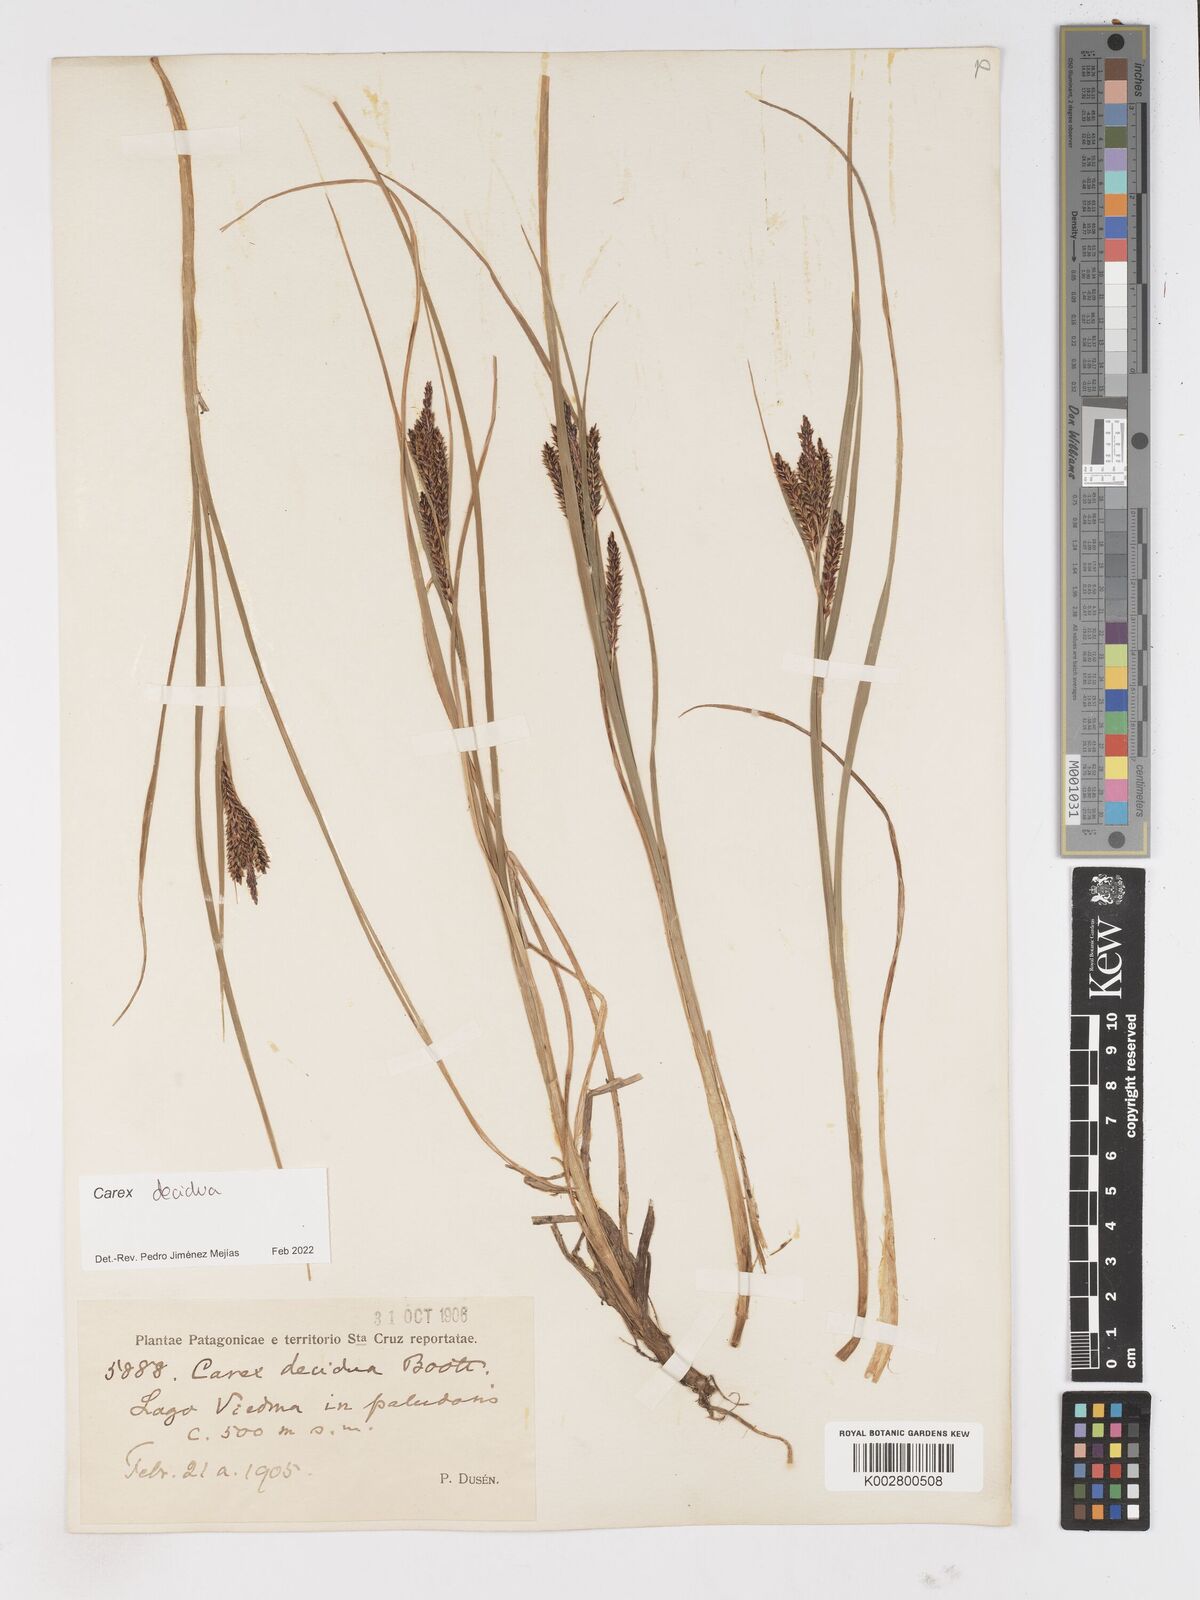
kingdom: Plantae
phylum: Tracheophyta
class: Liliopsida
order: Poales
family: Cyperaceae
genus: Carex
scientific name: Carex decidua
